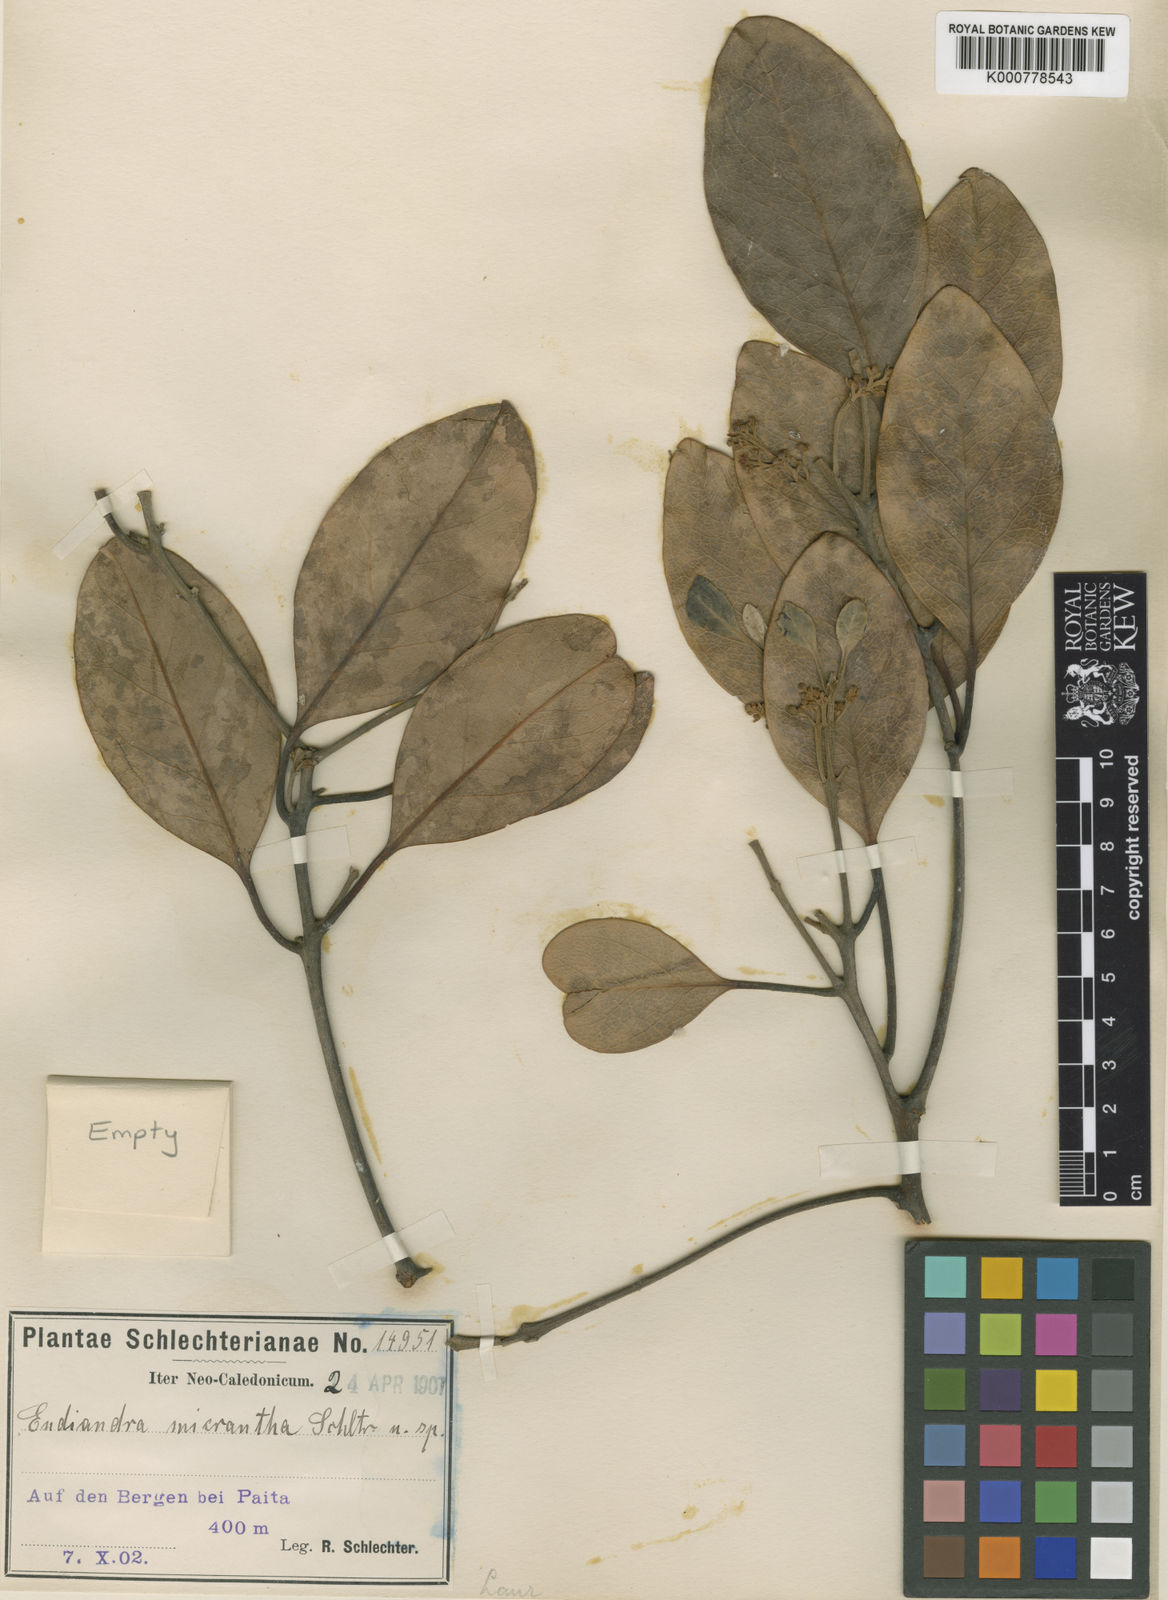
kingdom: Plantae
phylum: Tracheophyta
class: Magnoliopsida
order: Laurales
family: Lauraceae
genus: Endiandra
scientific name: Endiandra baillonii
